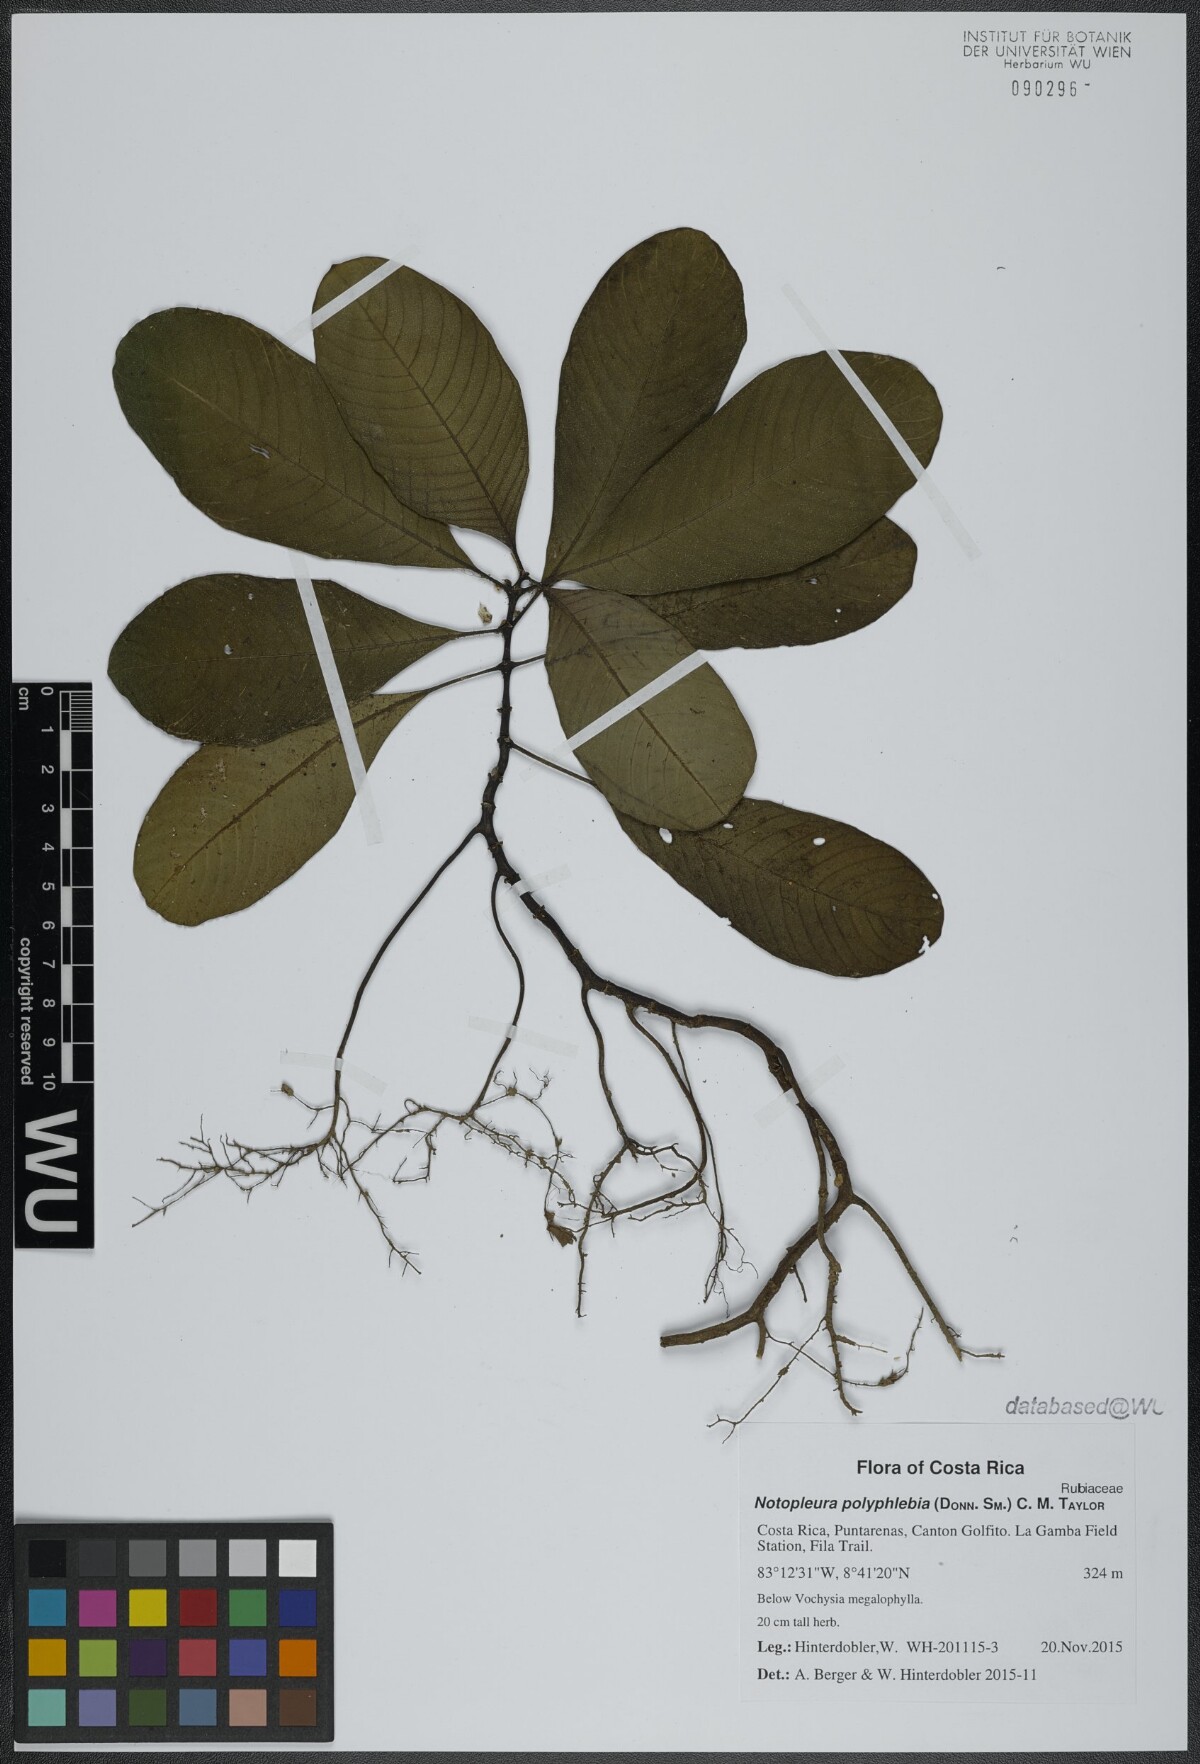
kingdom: Plantae
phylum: Tracheophyta
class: Magnoliopsida
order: Gentianales
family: Rubiaceae
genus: Notopleura
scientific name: Notopleura polyphlebia
